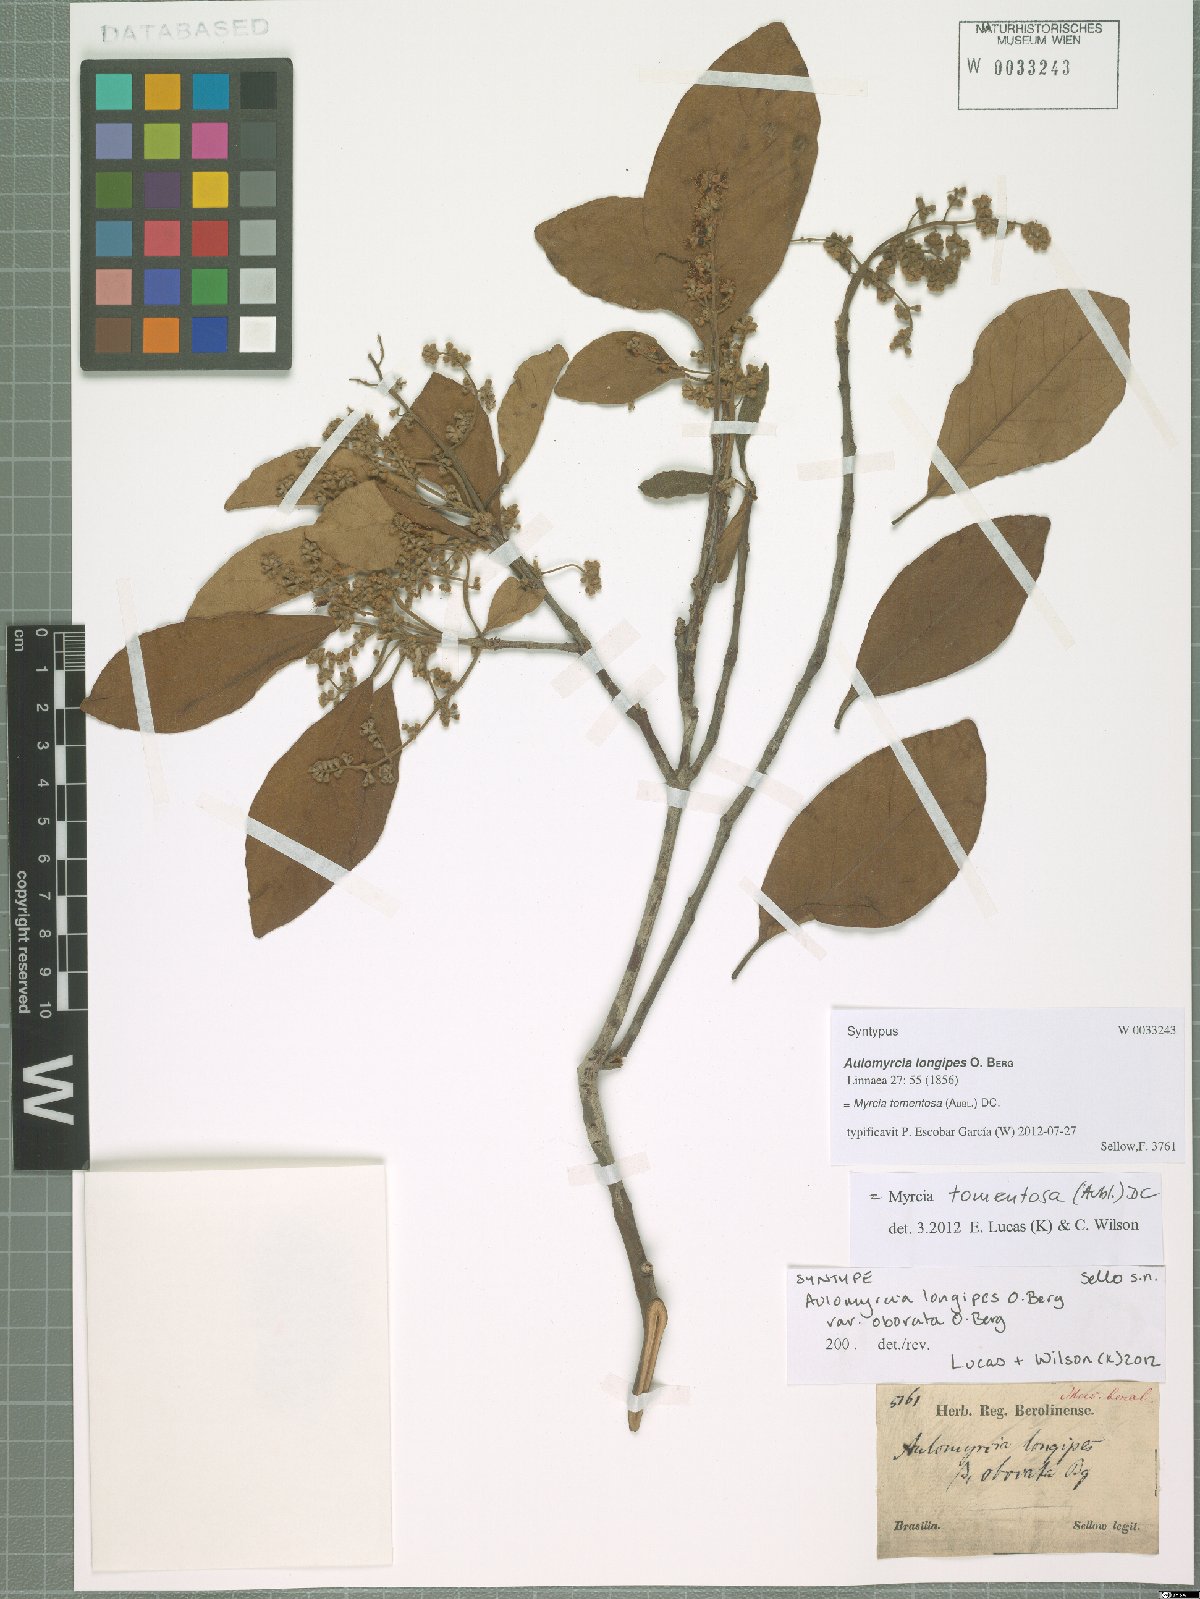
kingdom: Plantae
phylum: Tracheophyta
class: Magnoliopsida
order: Myrtales
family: Myrtaceae
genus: Myrcia
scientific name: Myrcia tomentosa
